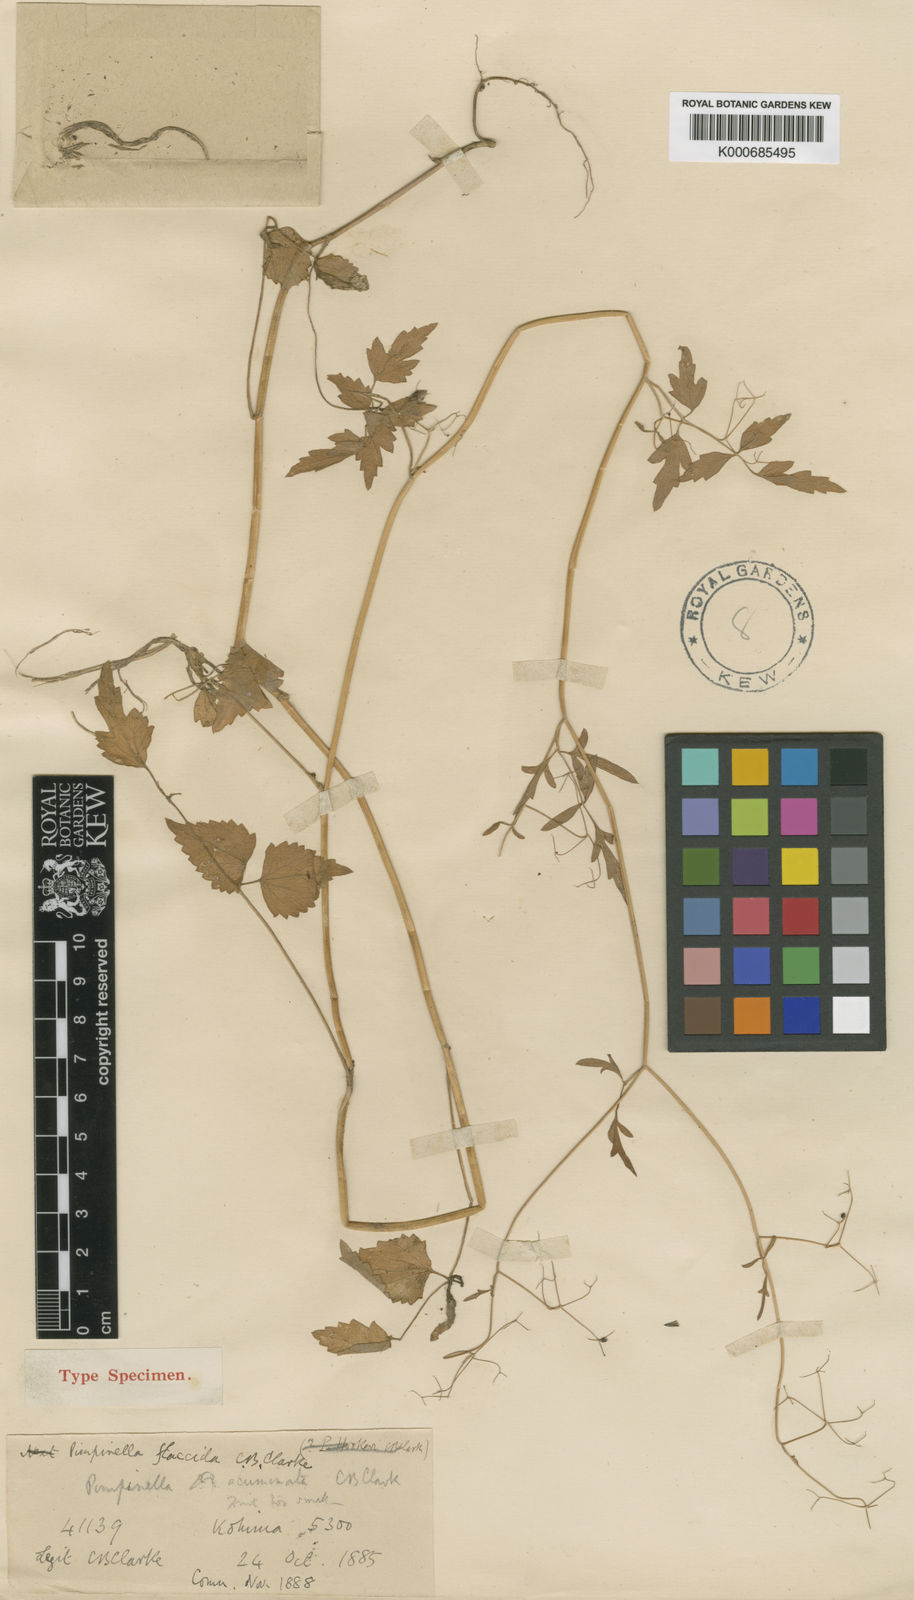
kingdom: Plantae
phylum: Tracheophyta
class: Magnoliopsida
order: Apiales
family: Apiaceae
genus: Pimpinella
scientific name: Pimpinella flaccida
